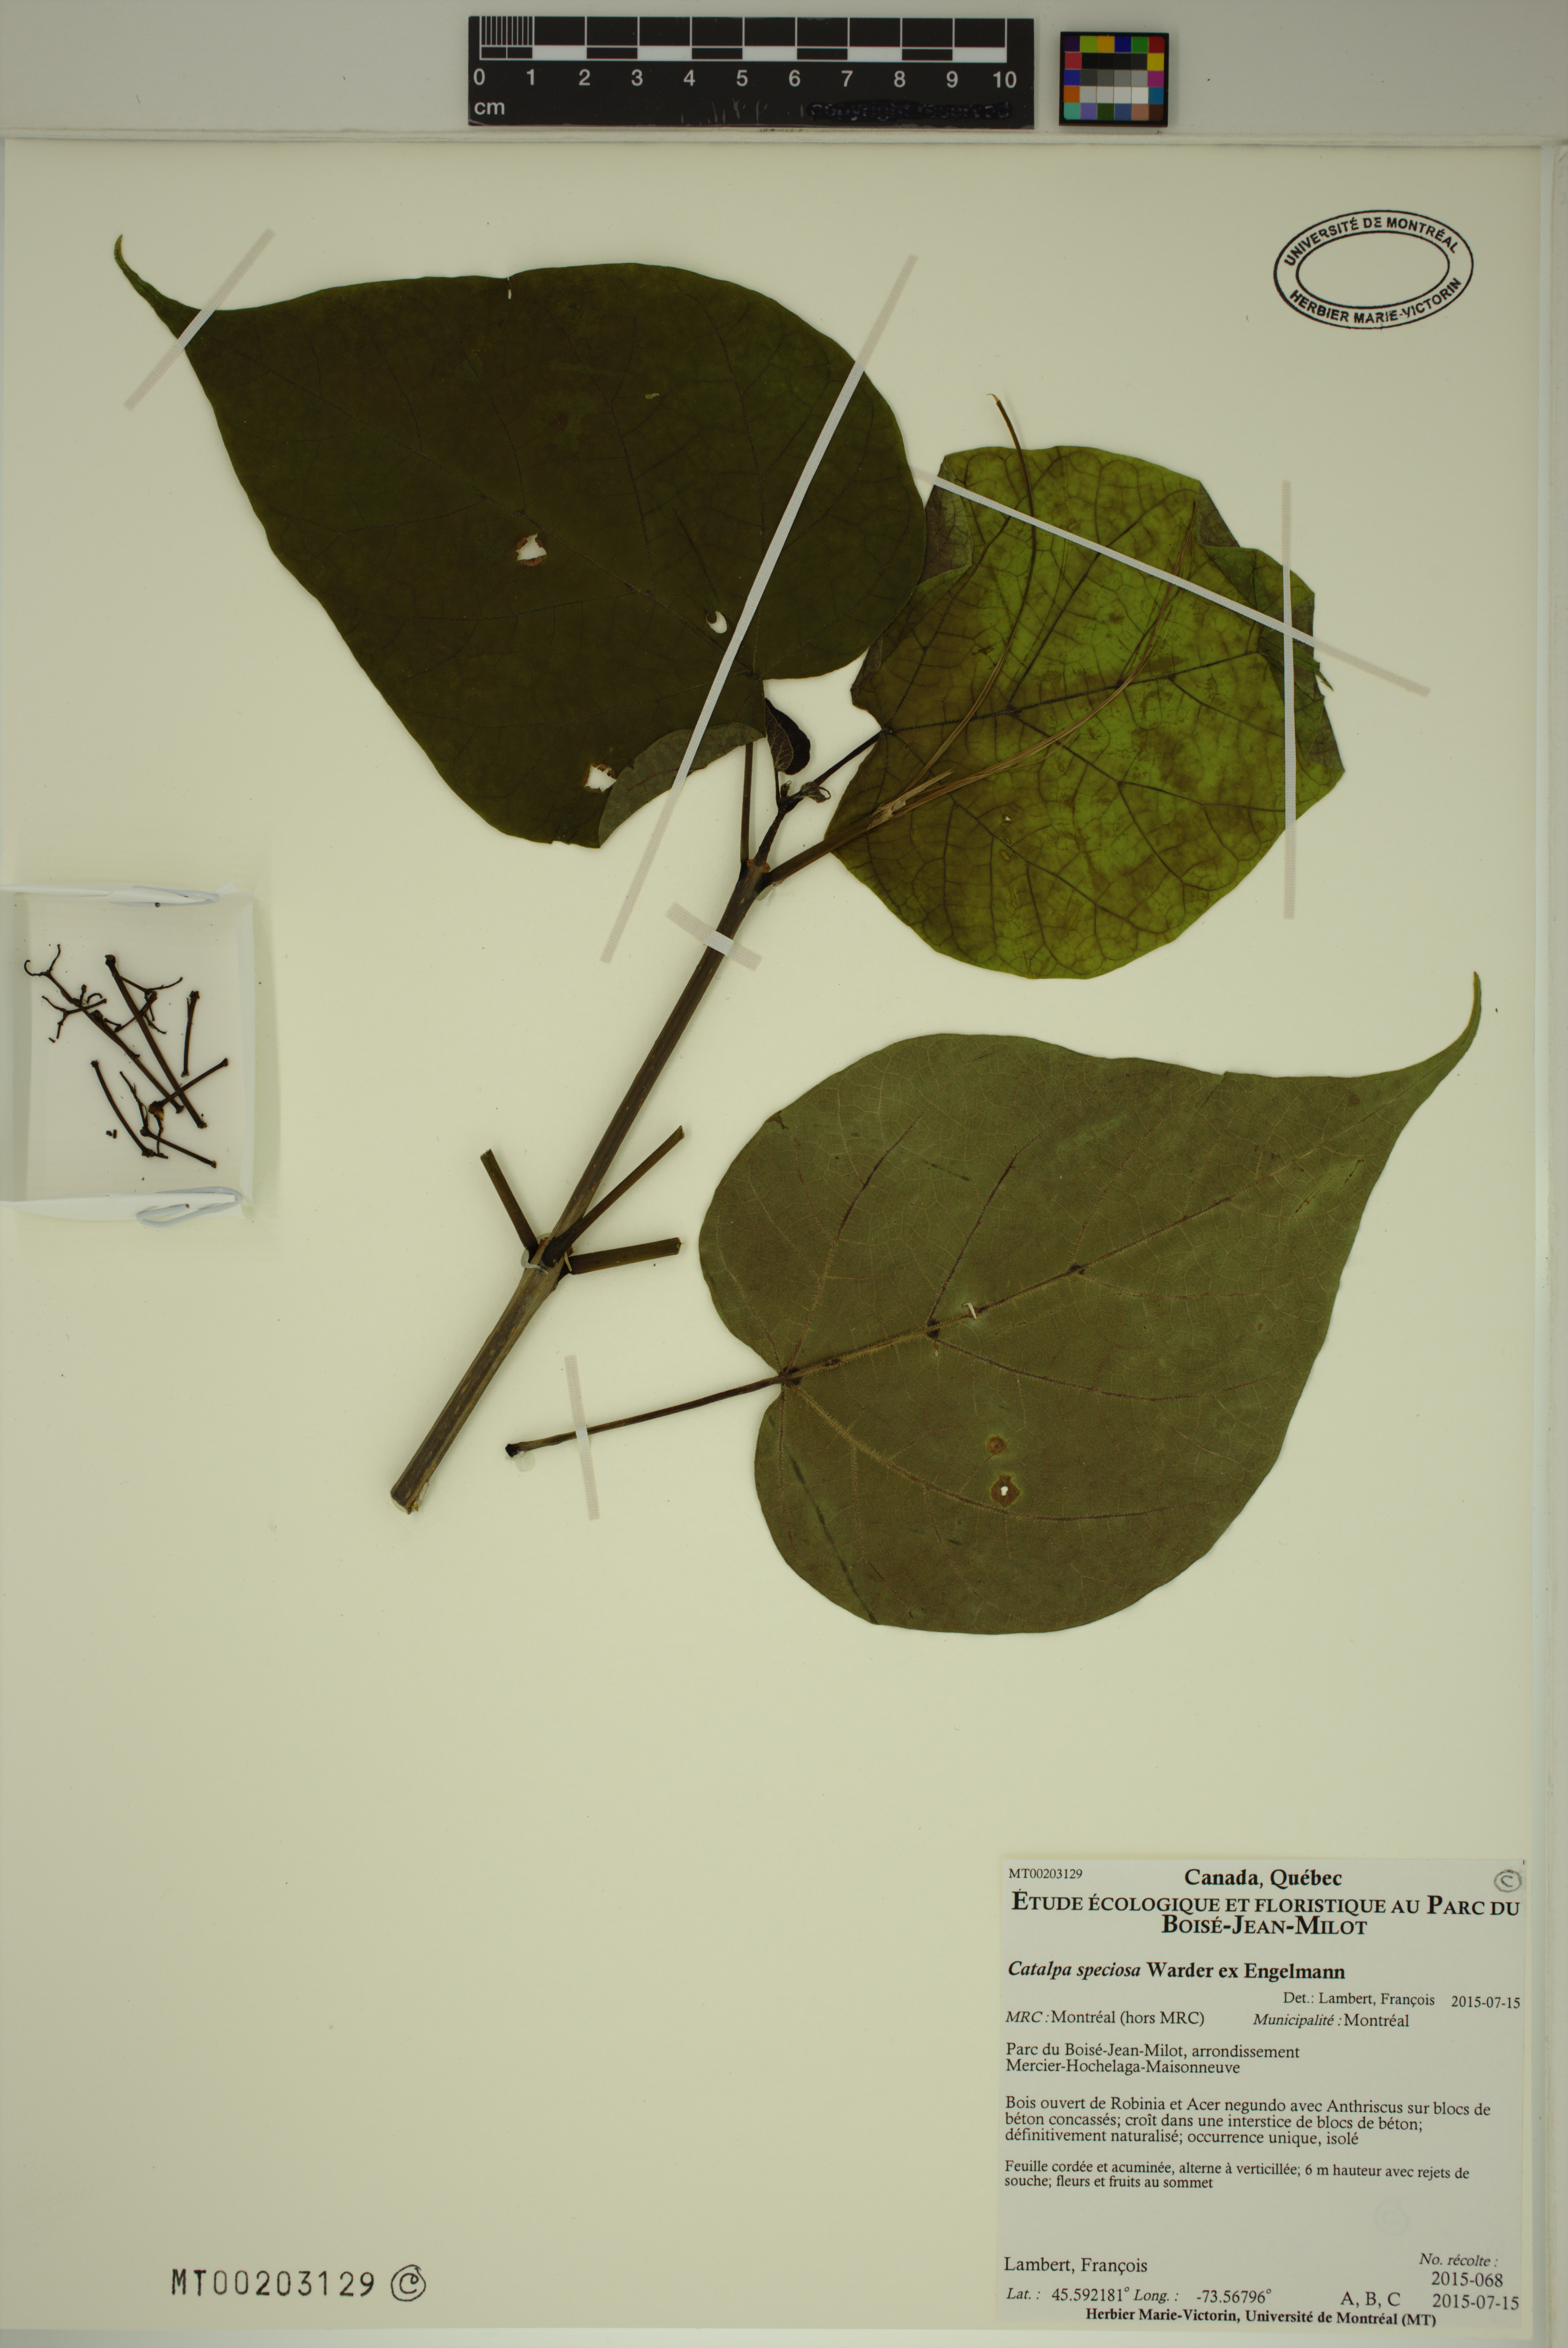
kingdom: Plantae
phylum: Tracheophyta
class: Magnoliopsida
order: Lamiales
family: Bignoniaceae
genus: Catalpa
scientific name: Catalpa speciosa
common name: Northern catalpa
